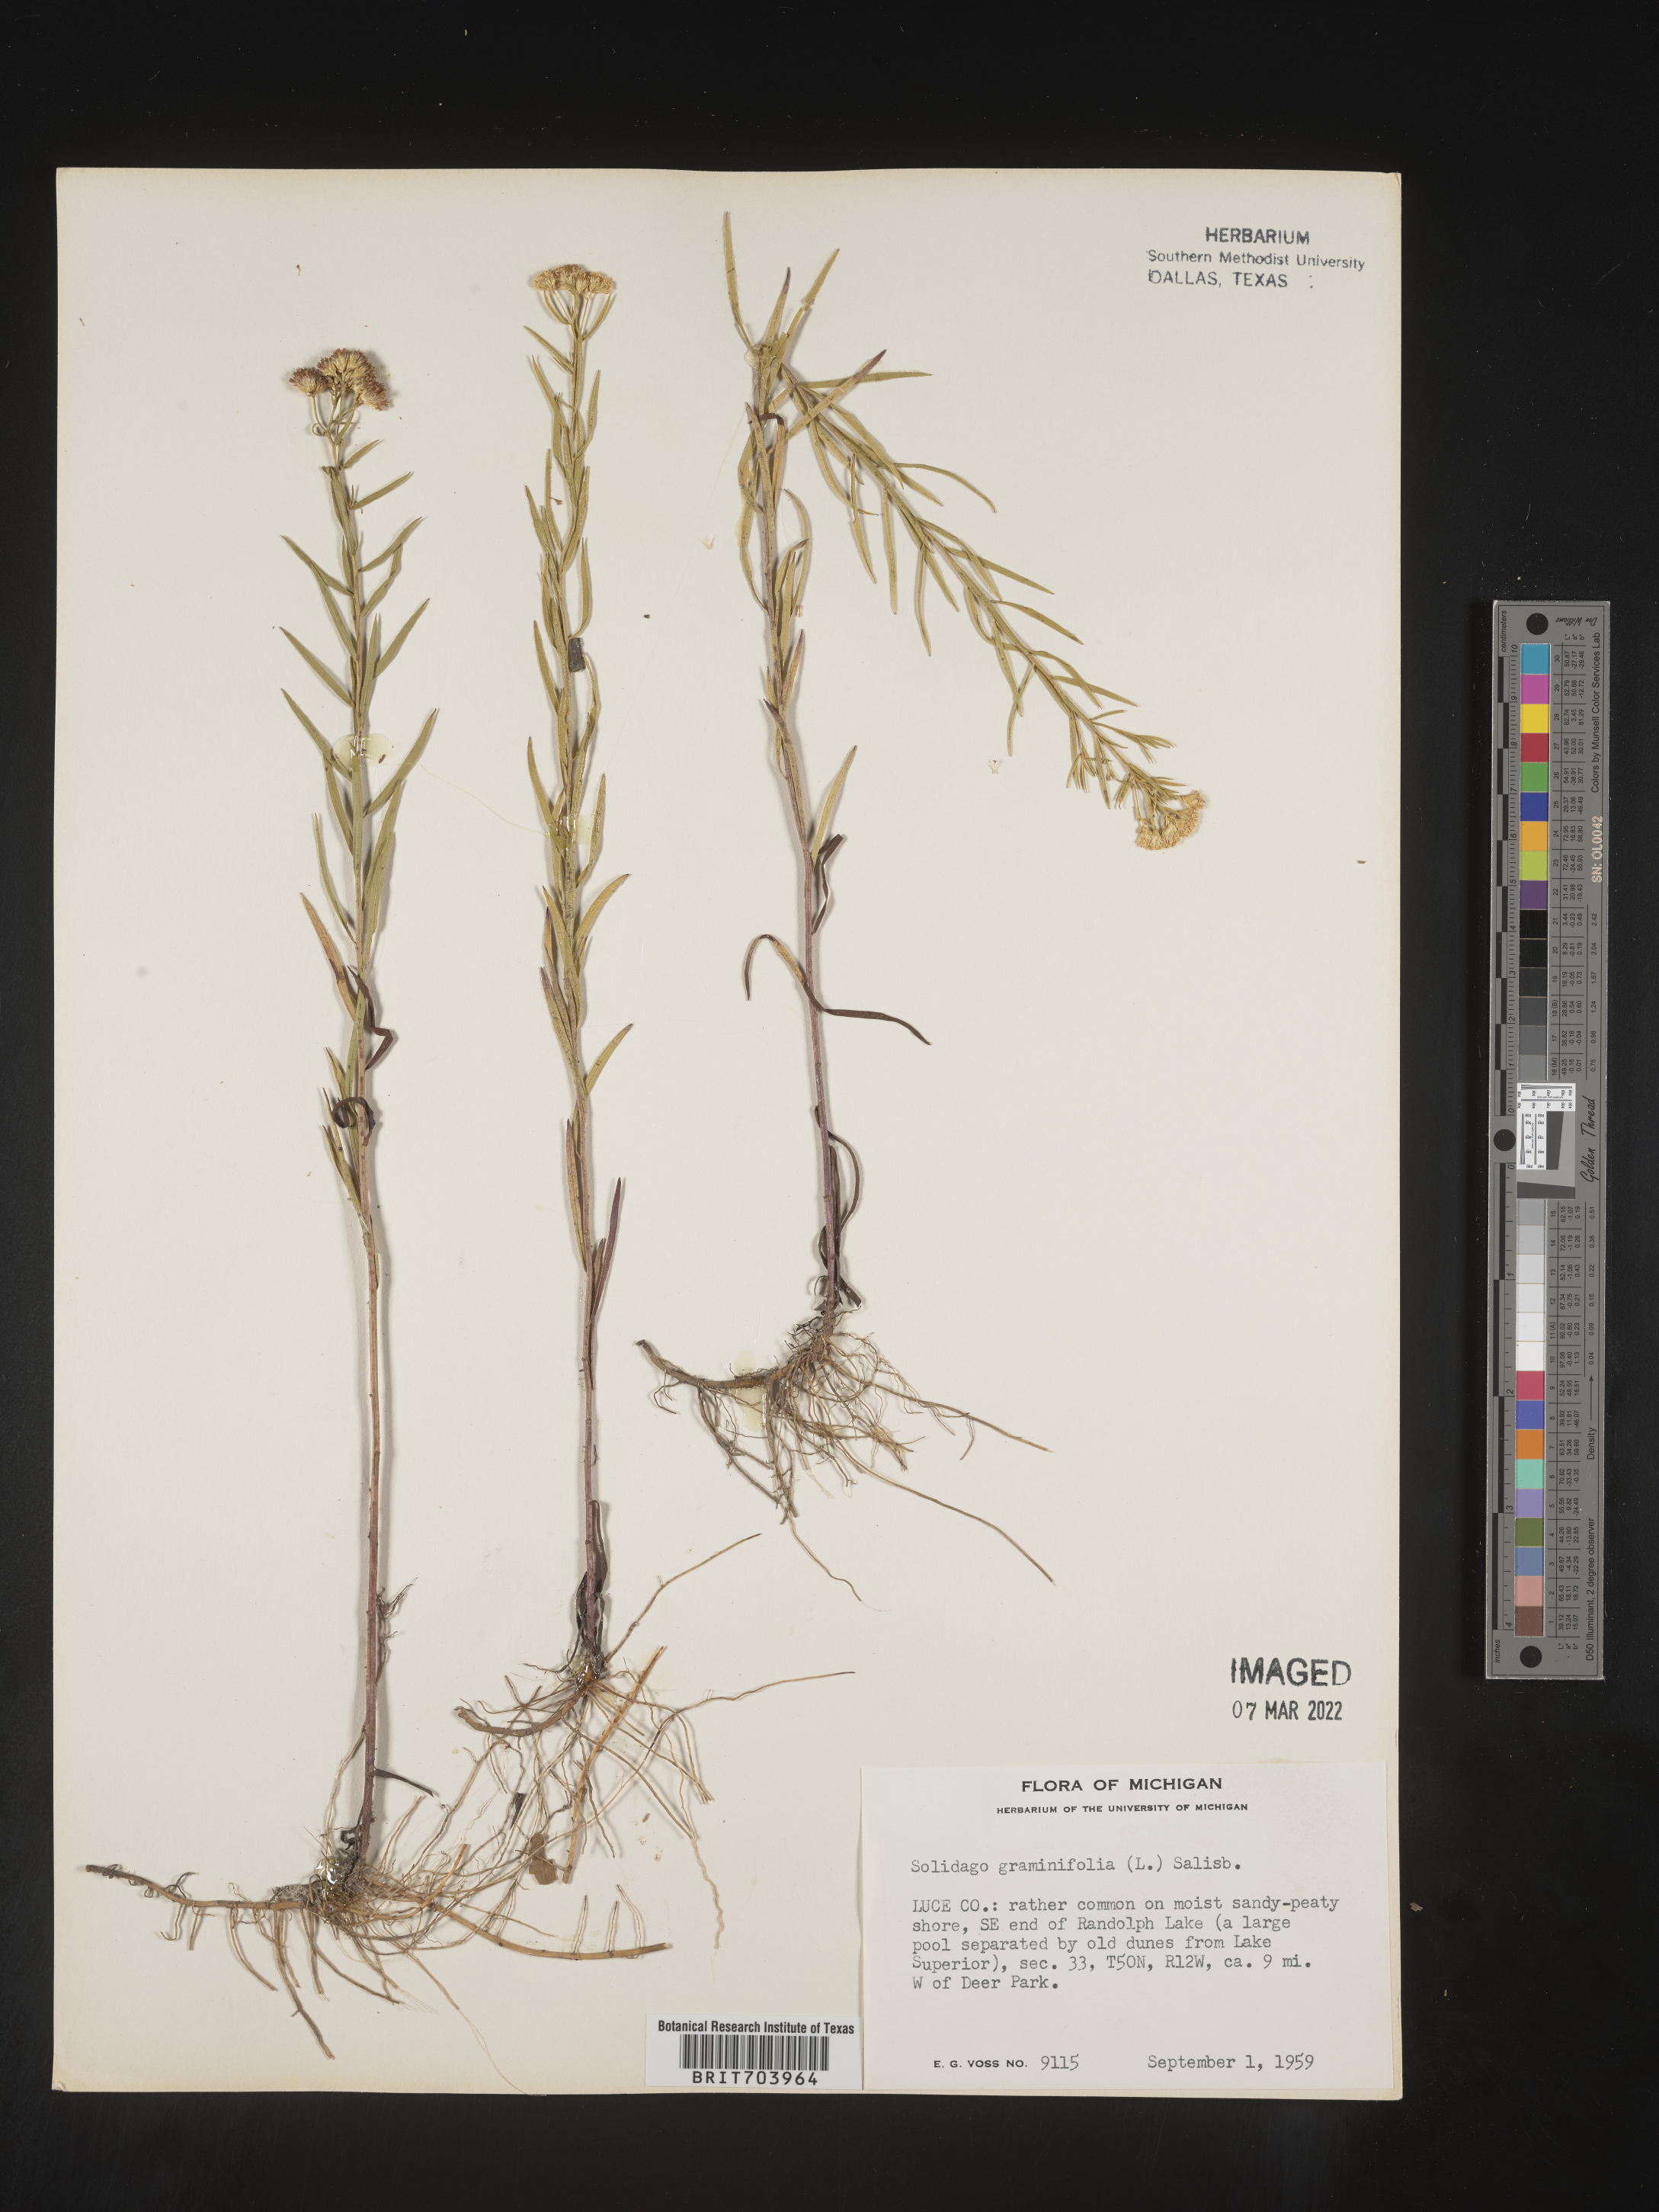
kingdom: Plantae
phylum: Tracheophyta
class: Magnoliopsida
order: Asterales
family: Asteraceae
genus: Euthamia
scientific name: Euthamia graminifolia
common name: Common goldentop
